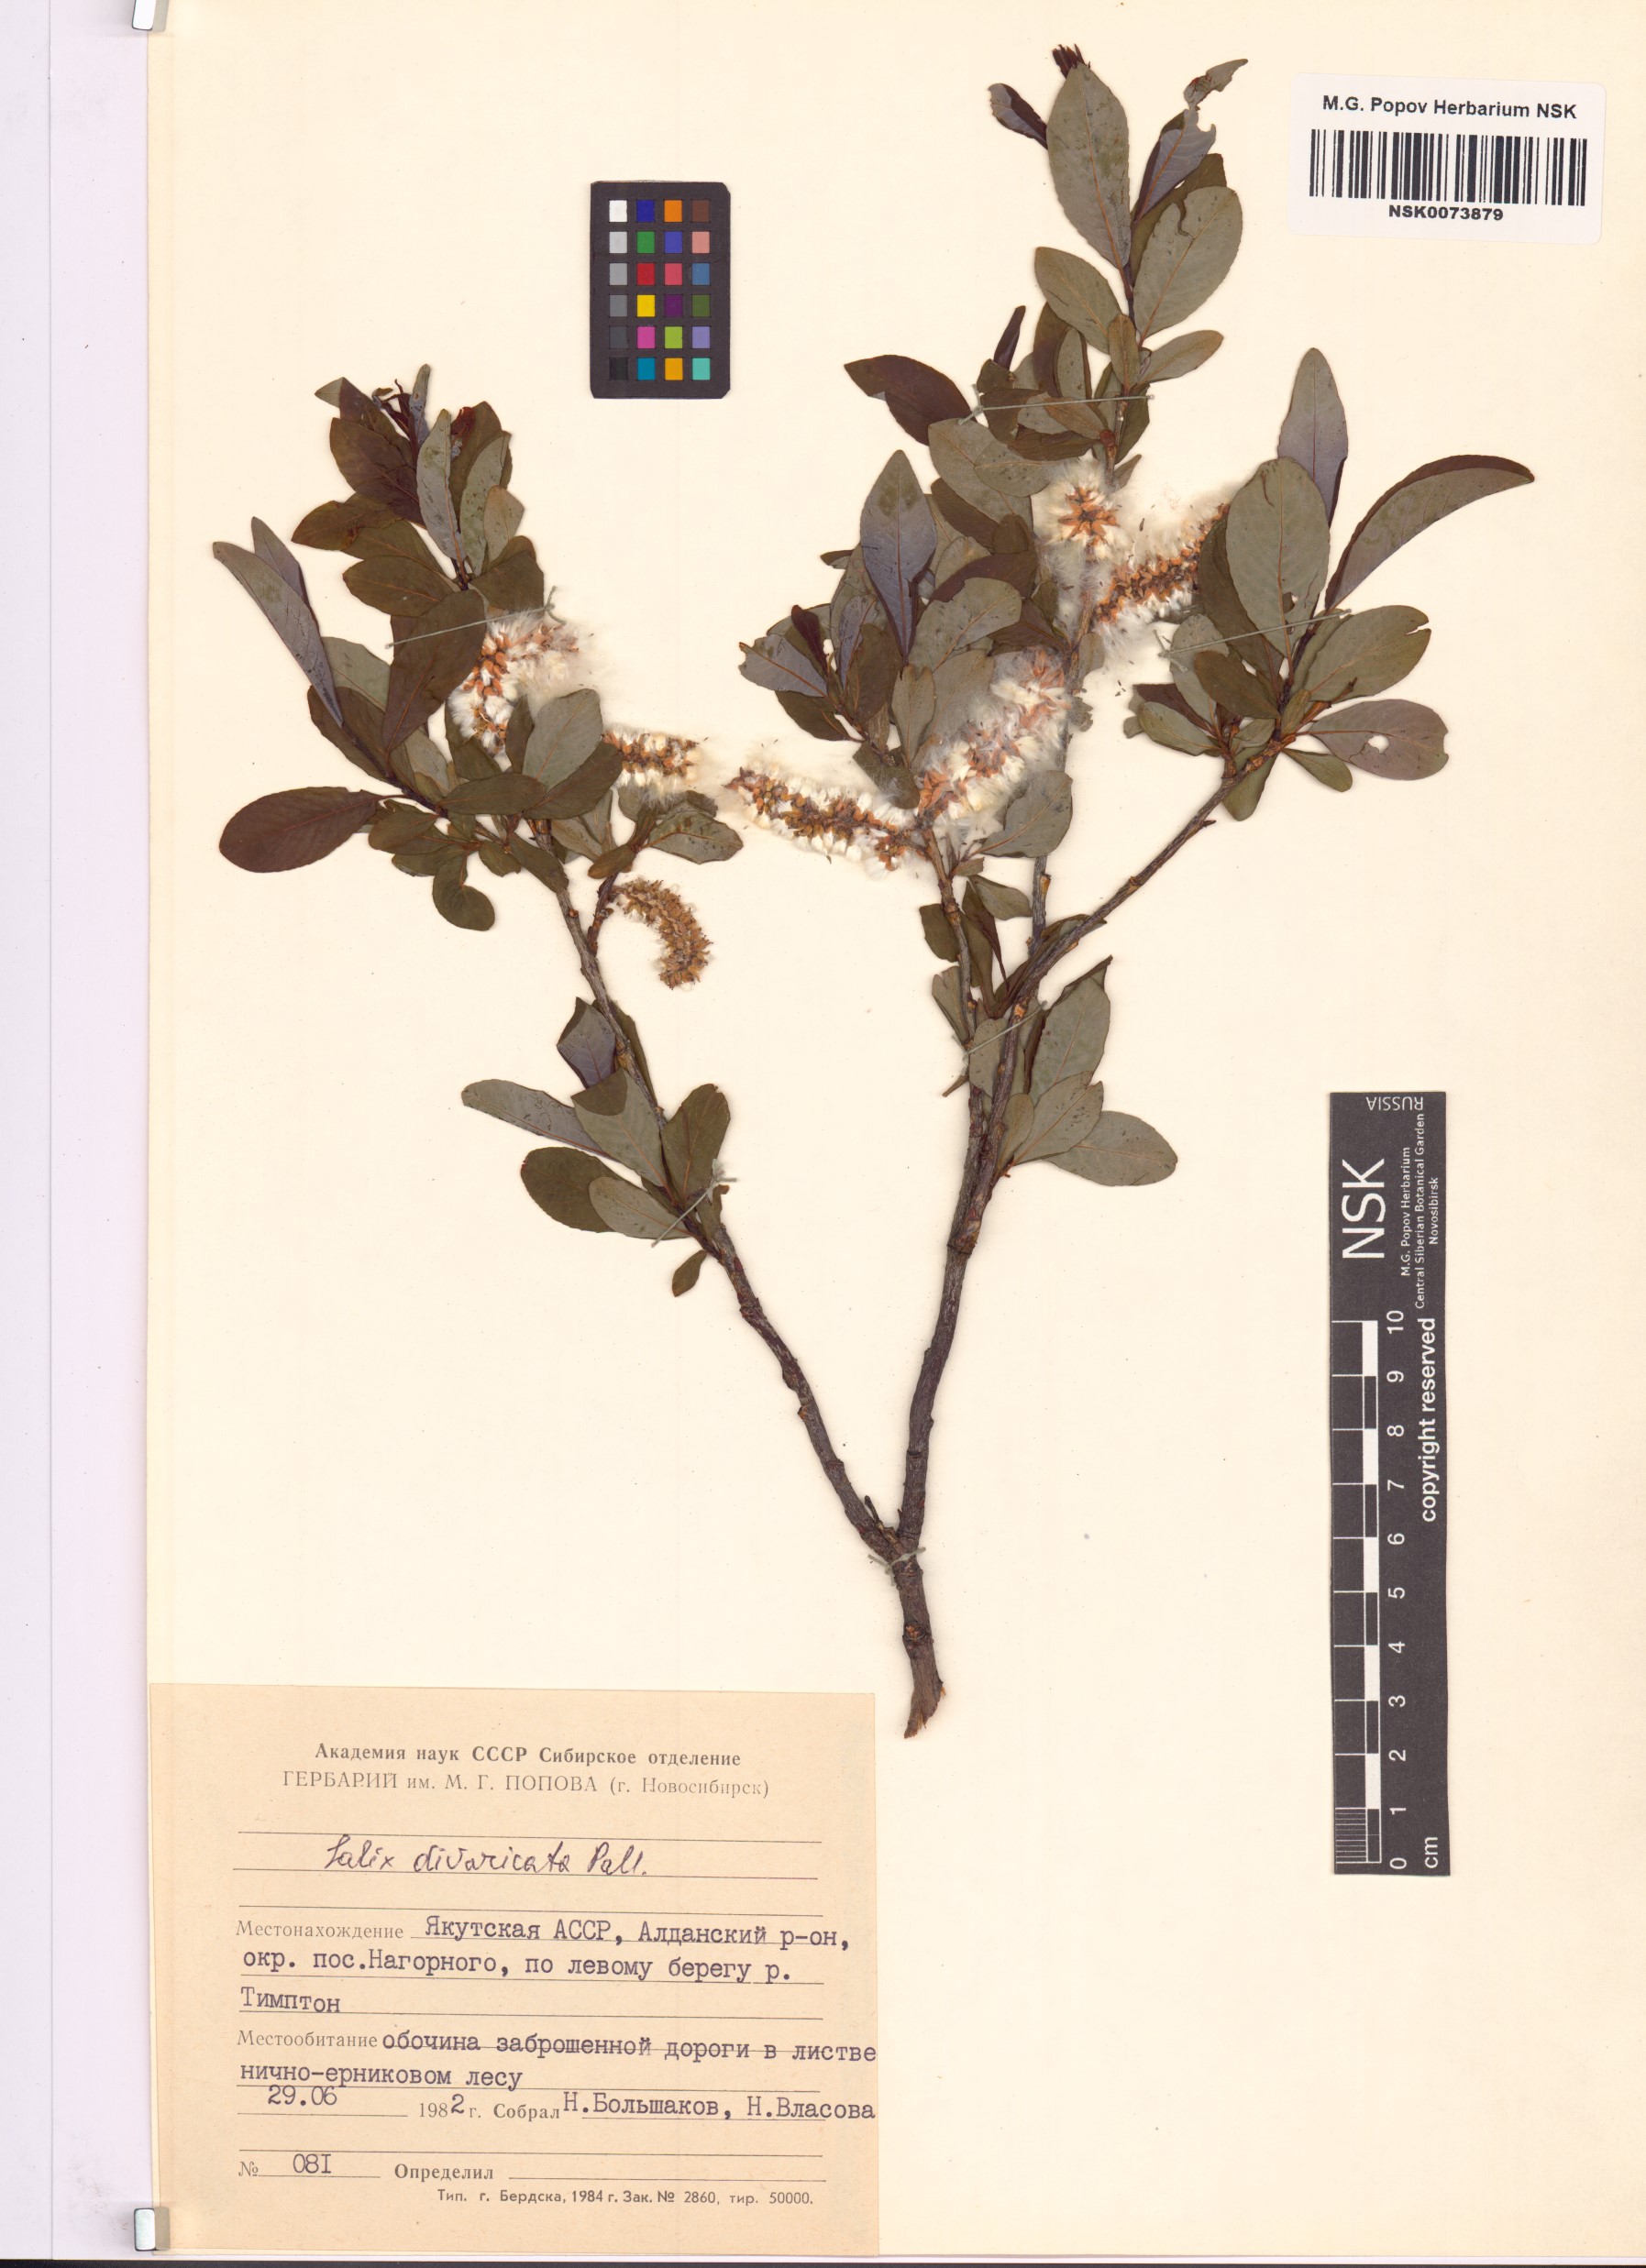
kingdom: Plantae
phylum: Tracheophyta
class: Magnoliopsida
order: Malpighiales
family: Salicaceae
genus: Salix
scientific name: Salix divaricata
